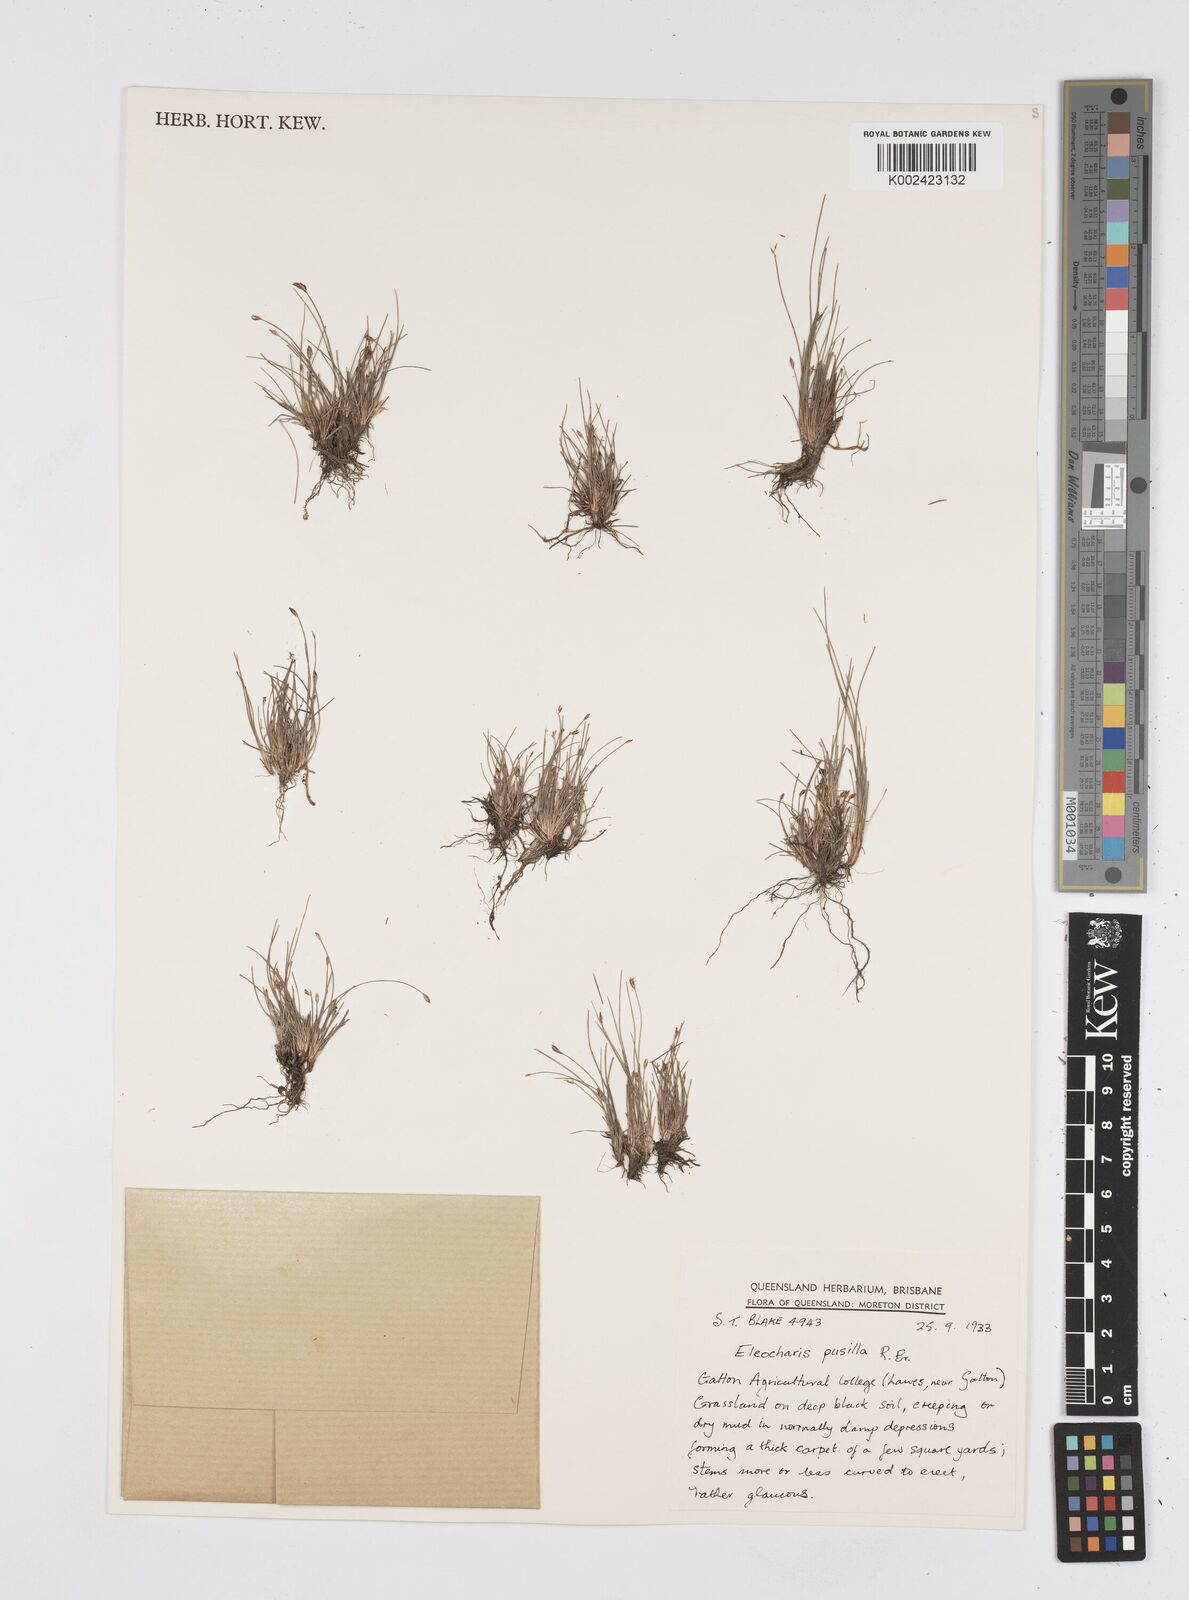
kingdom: Plantae
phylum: Tracheophyta
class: Liliopsida
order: Poales
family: Cyperaceae
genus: Eleocharis
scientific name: Eleocharis pusilla
